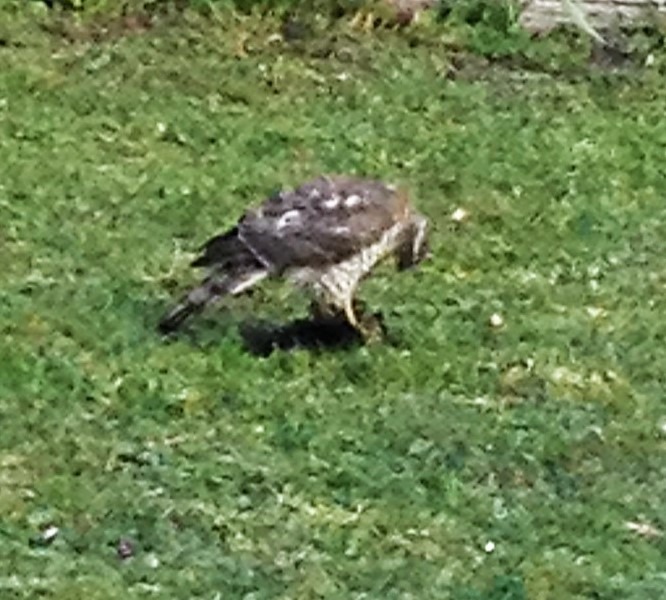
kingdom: Animalia
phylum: Chordata
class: Aves
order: Accipitriformes
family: Accipitridae
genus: Accipiter
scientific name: Accipiter nisus
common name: Spurvehøg
